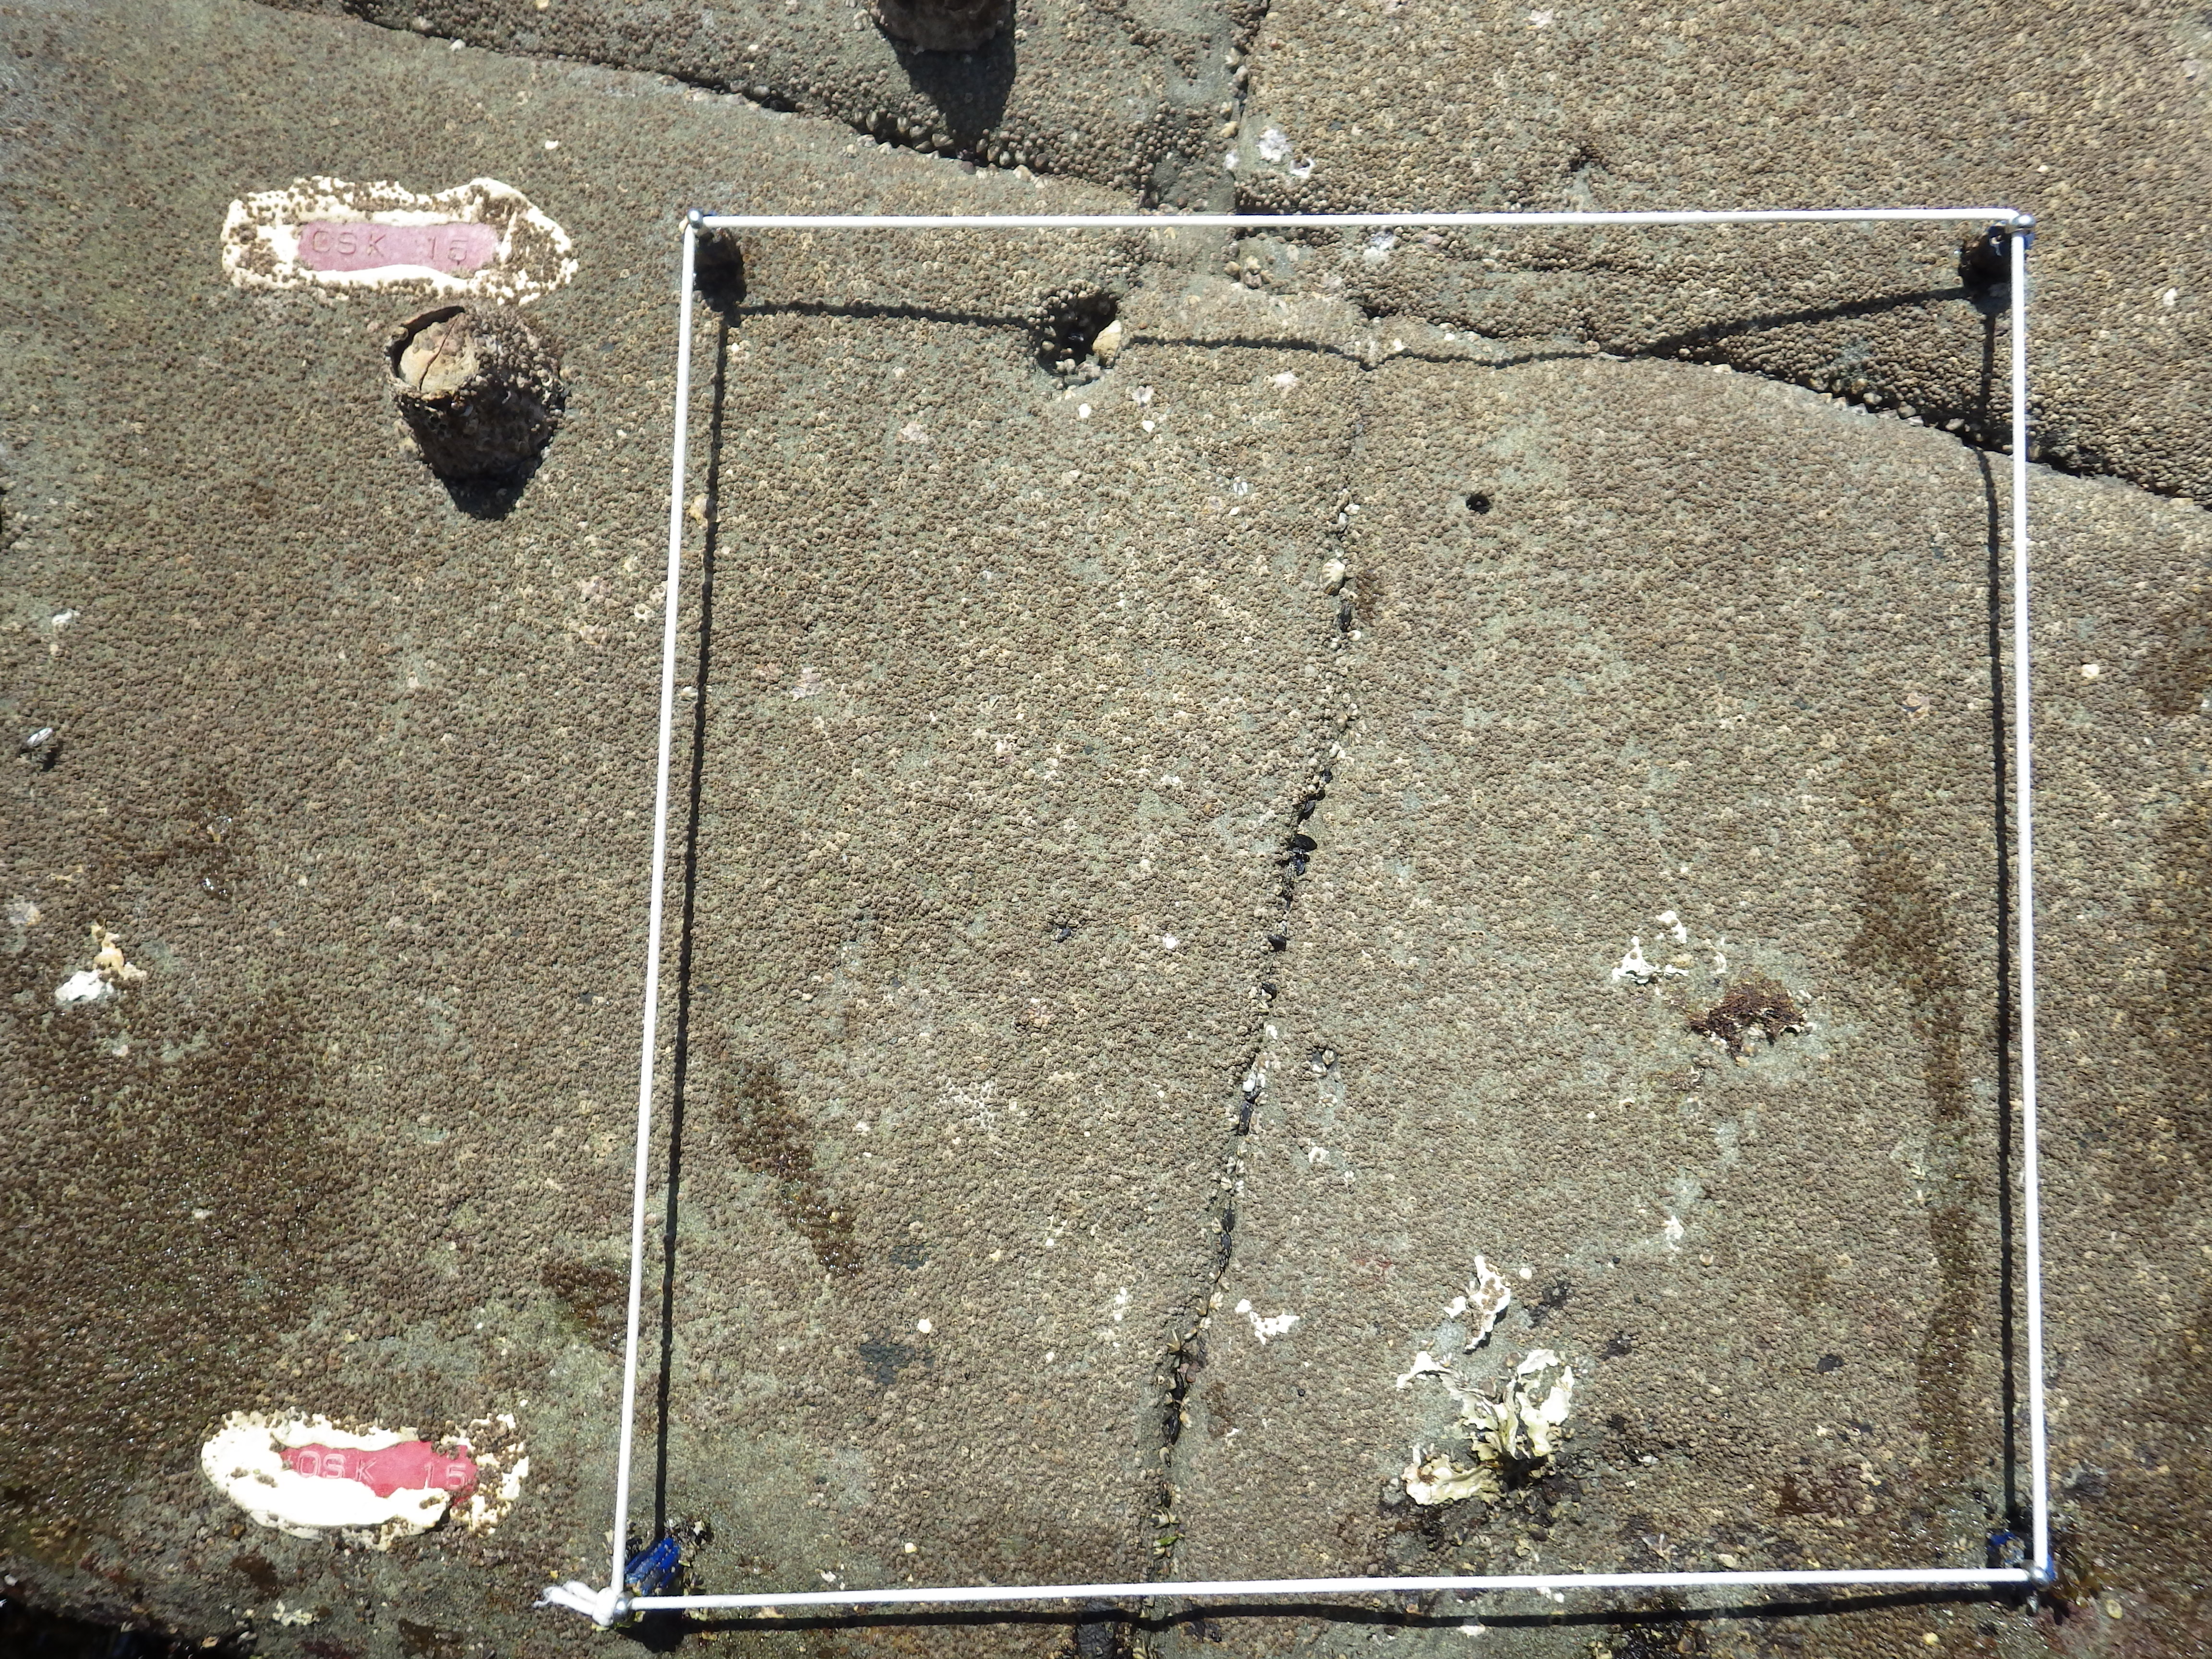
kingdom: Animalia
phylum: Arthropoda
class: Maxillopoda
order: Sessilia
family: Chthamalidae
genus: Chthamalus
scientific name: Chthamalus challengeri
